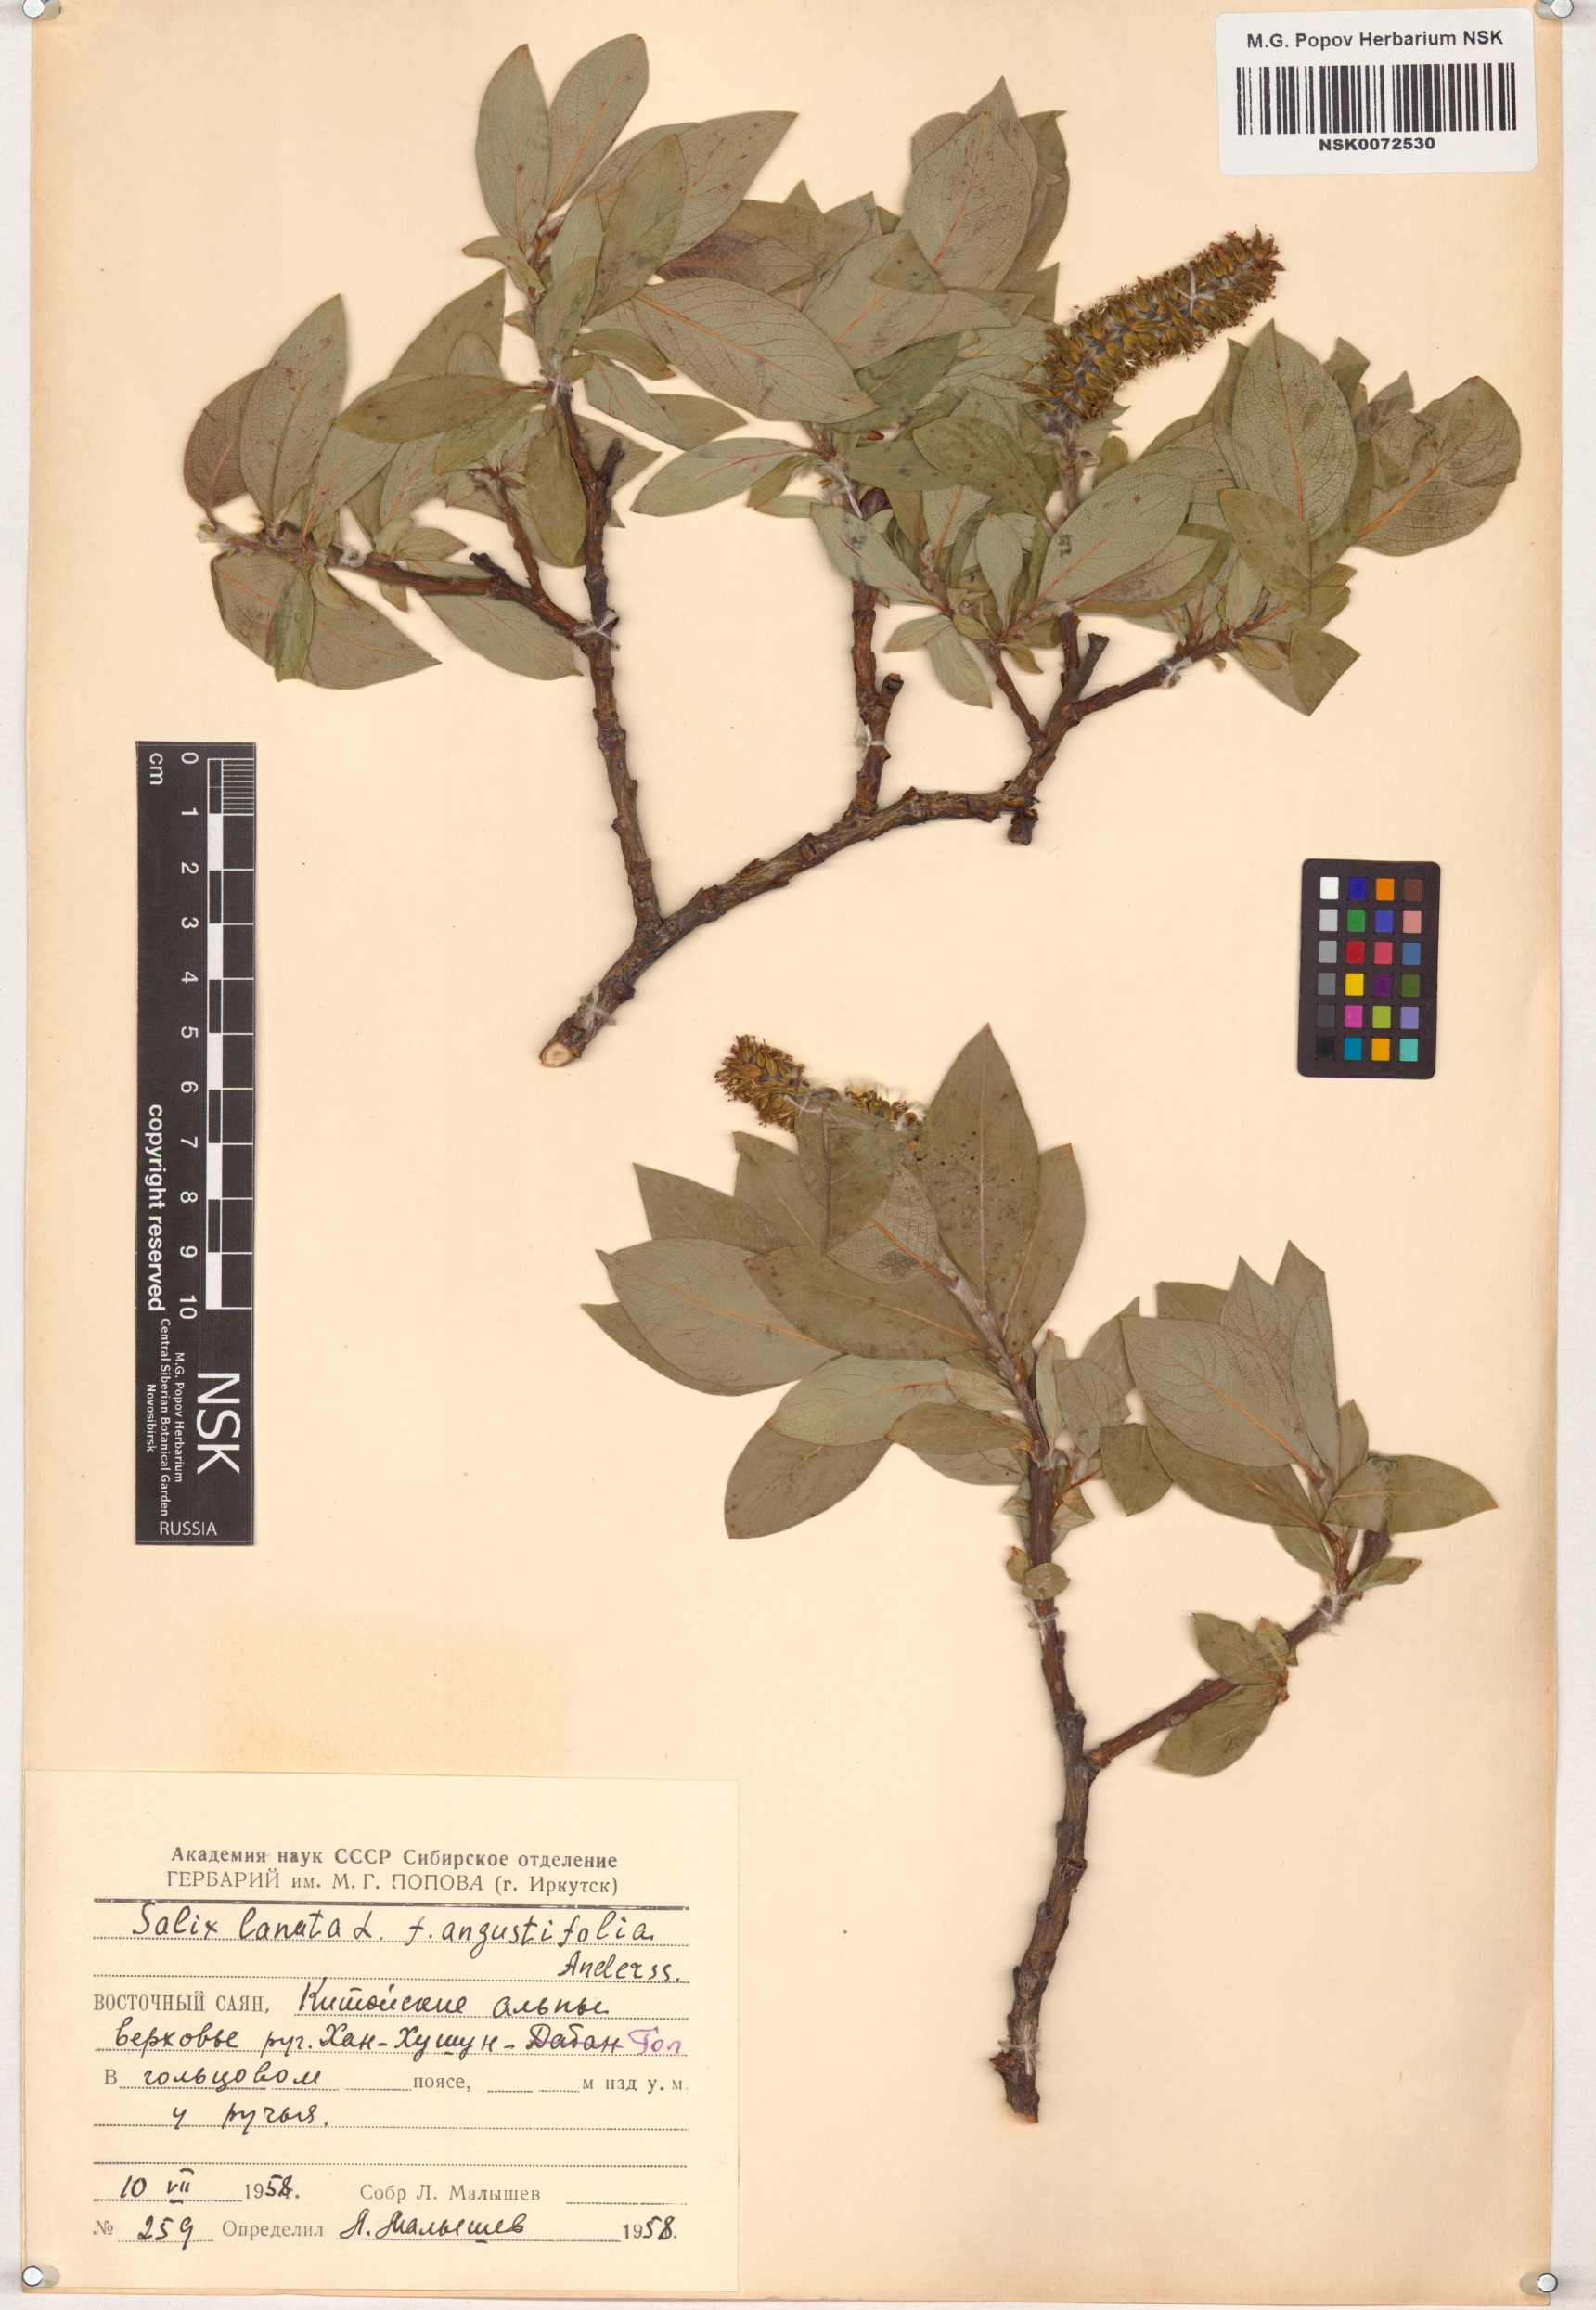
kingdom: Plantae
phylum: Tracheophyta
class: Magnoliopsida
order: Malpighiales
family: Salicaceae
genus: Salix
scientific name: Salix lanata
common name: Woolly willow
